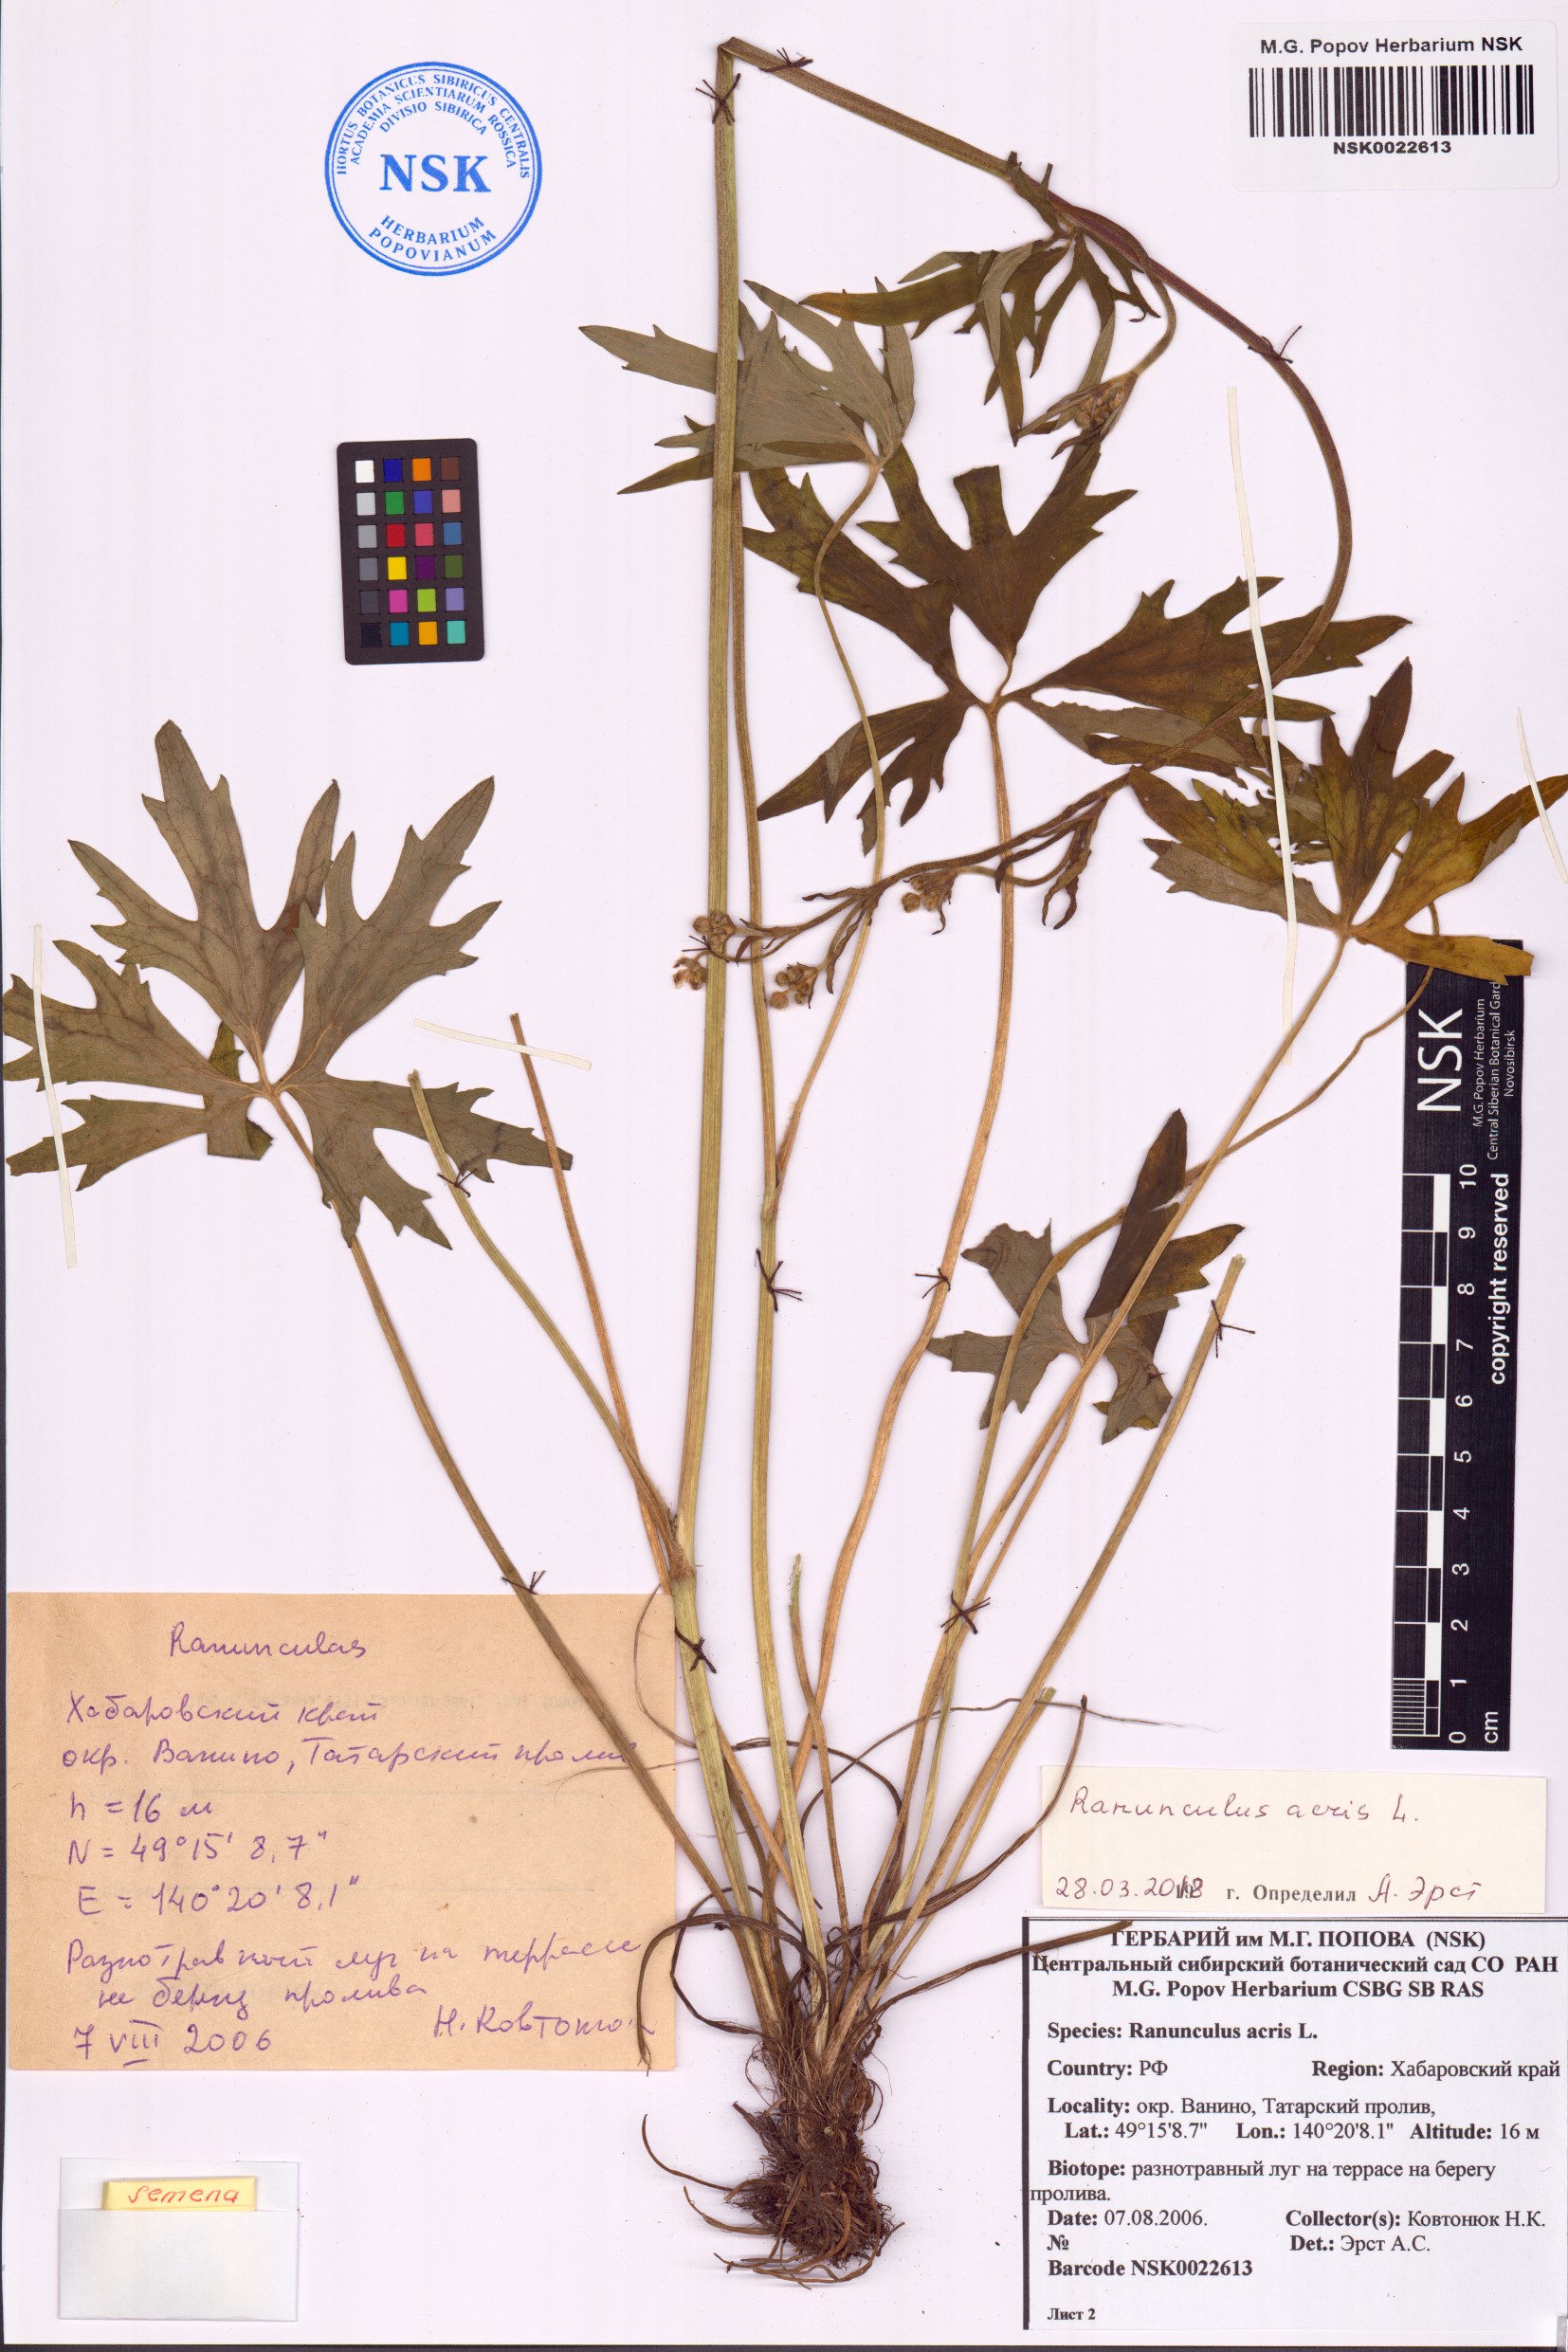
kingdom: Plantae
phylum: Tracheophyta
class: Magnoliopsida
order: Ranunculales
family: Ranunculaceae
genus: Ranunculus
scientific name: Ranunculus acris
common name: Meadow buttercup
